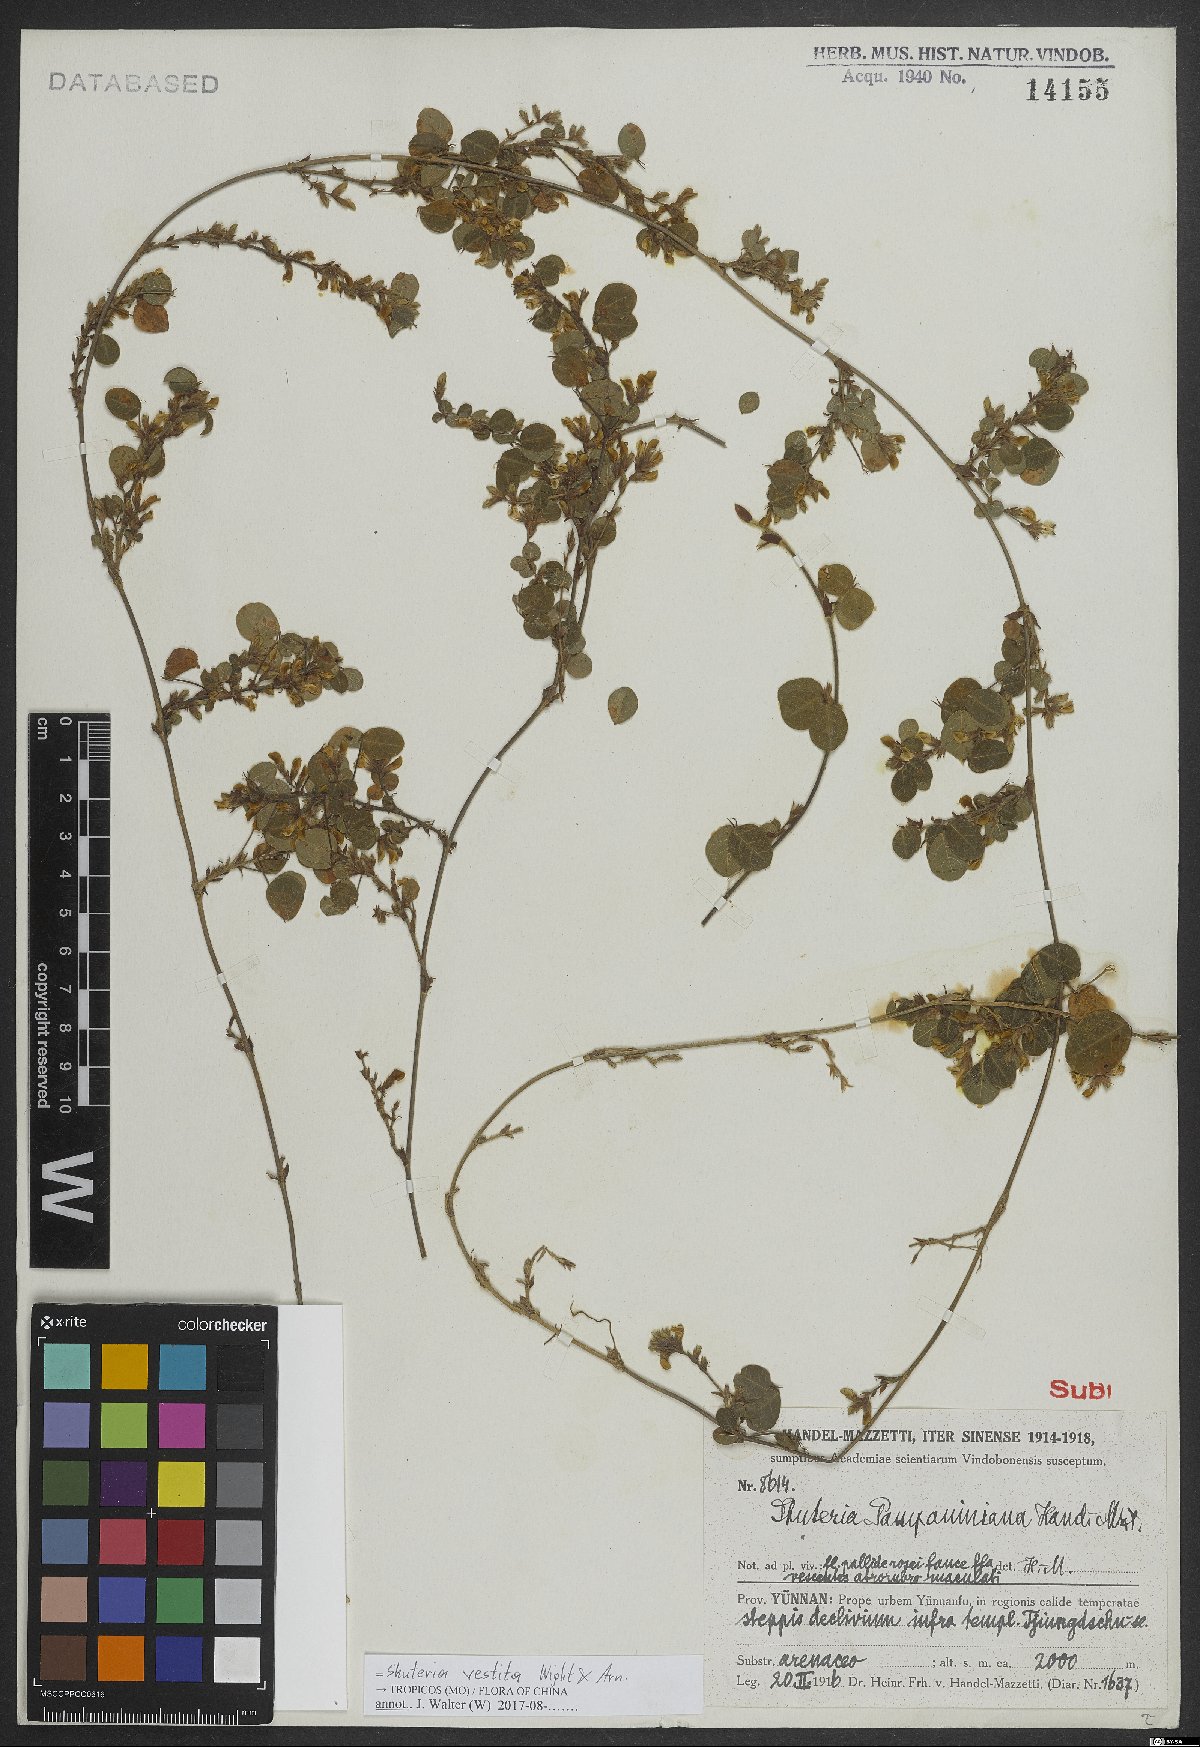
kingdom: Plantae
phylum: Tracheophyta
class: Magnoliopsida
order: Fabales
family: Fabaceae
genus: Shuteria
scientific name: Shuteria vestita
